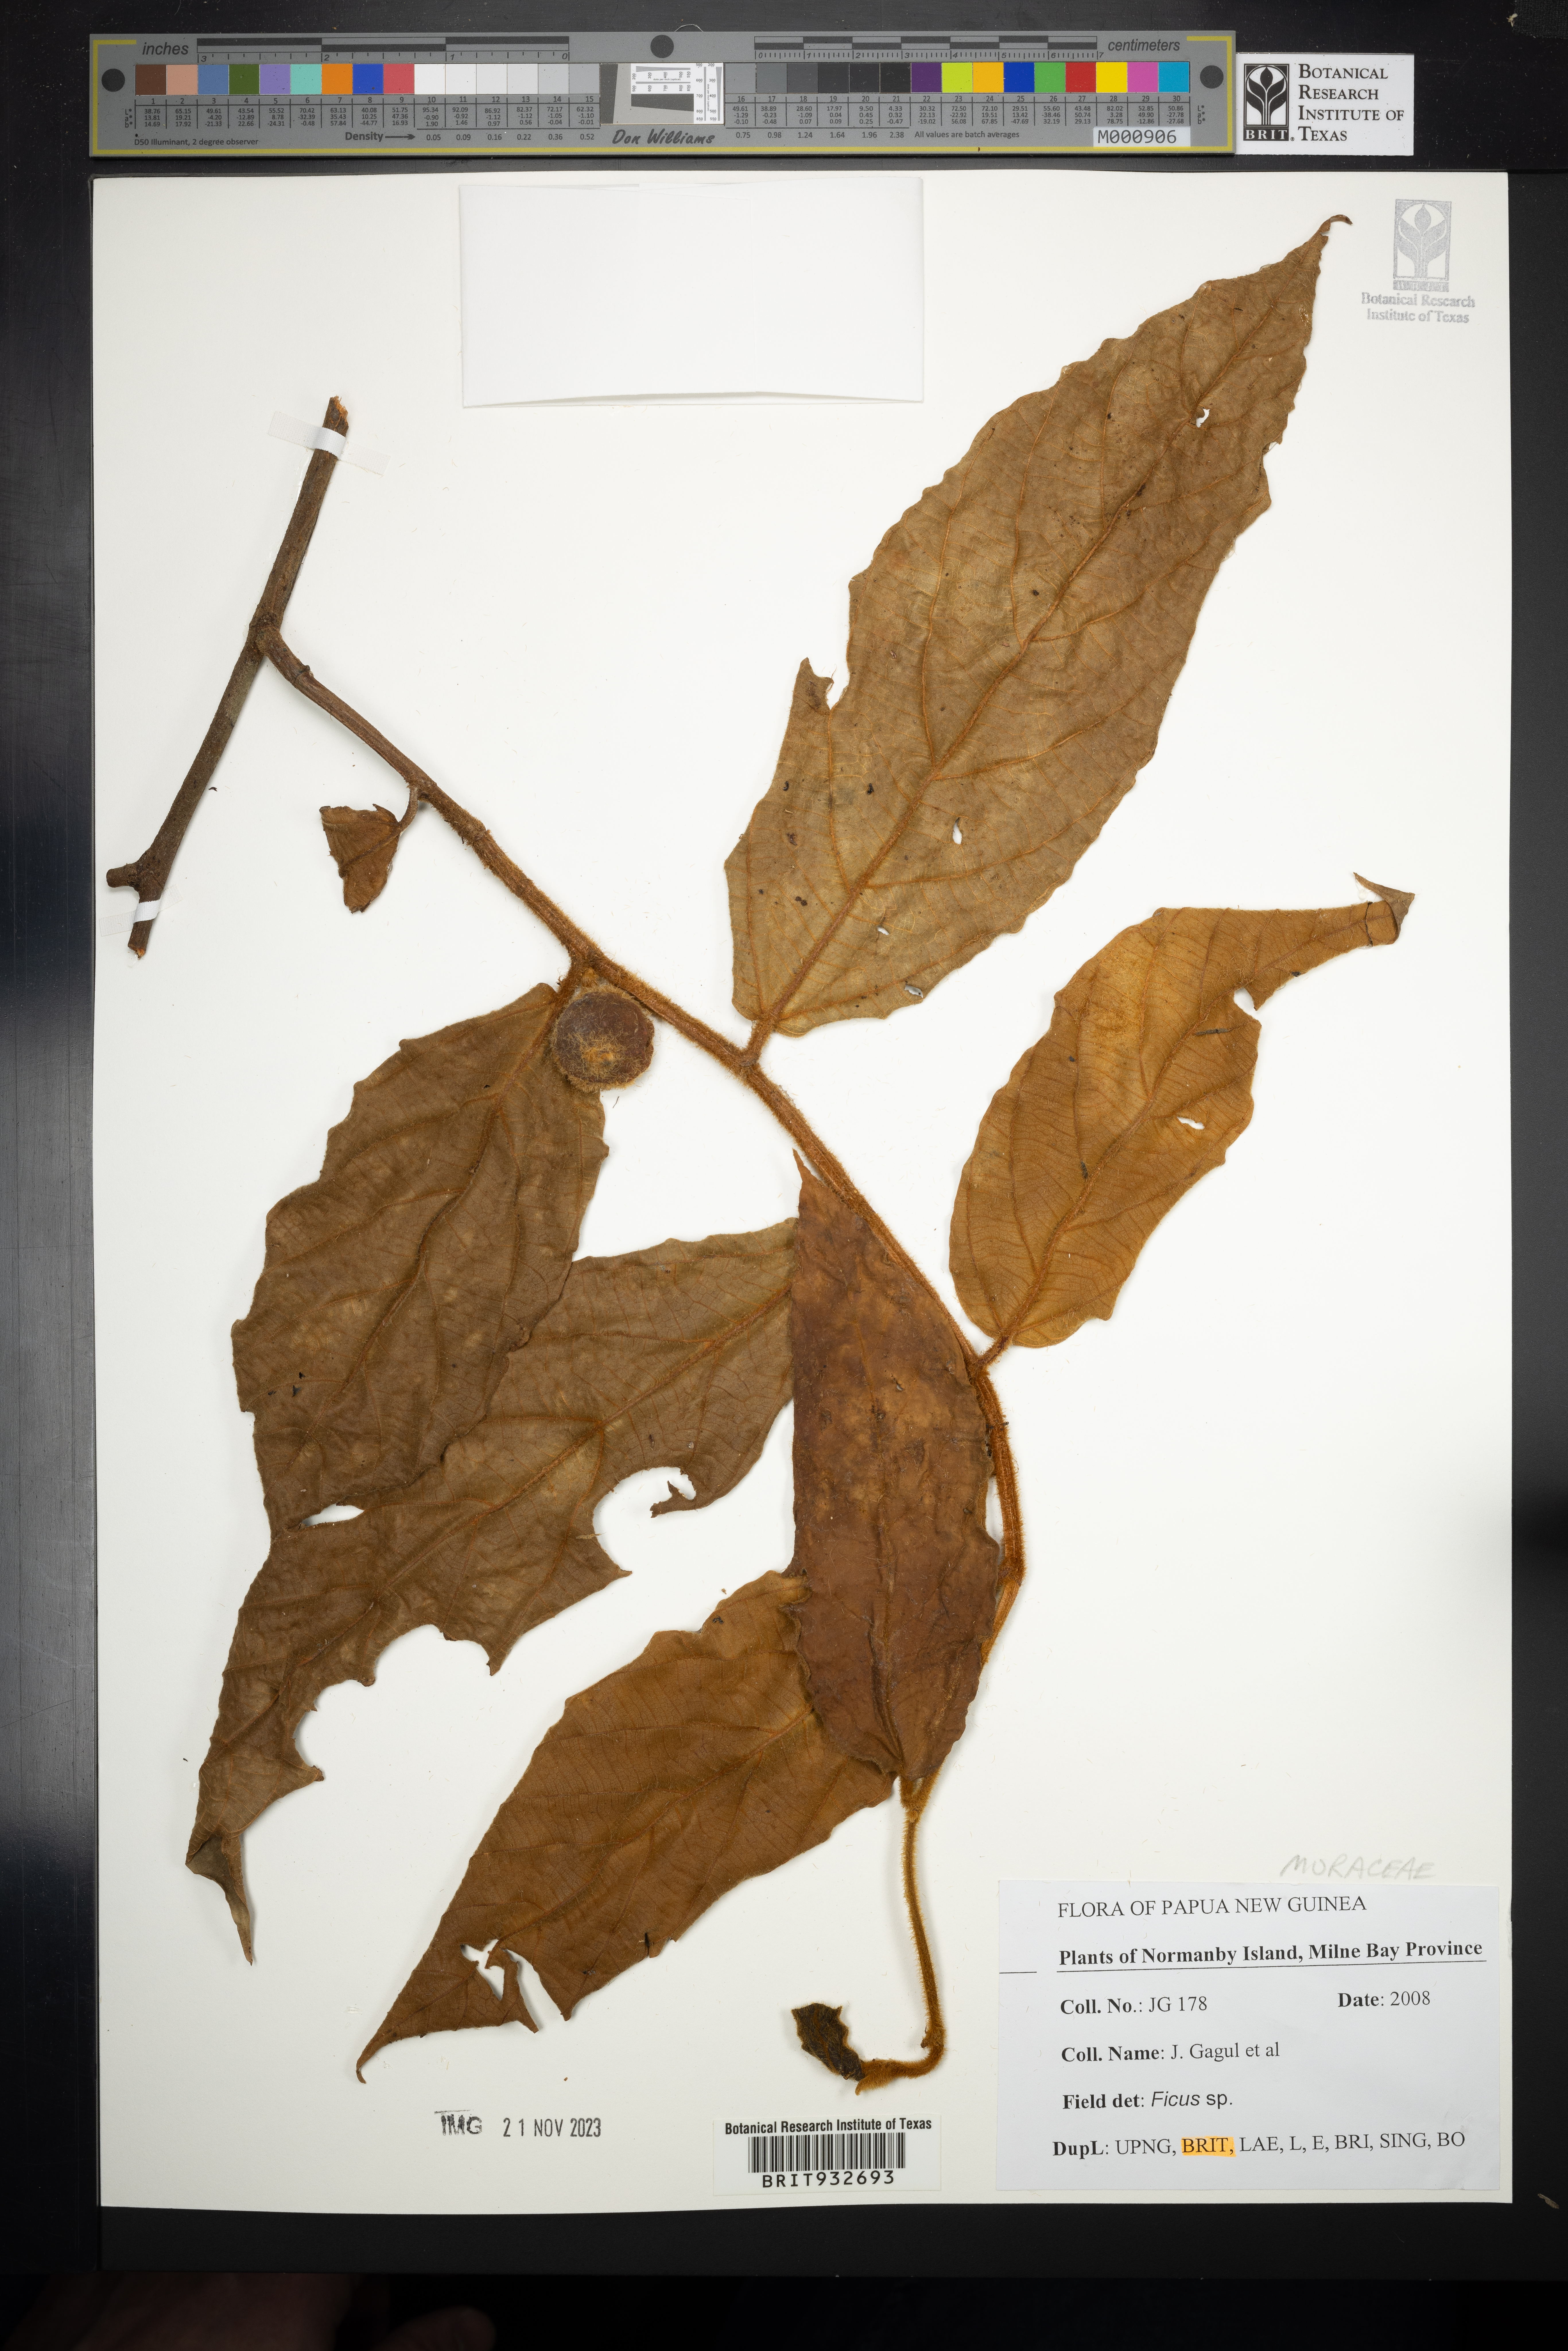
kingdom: Plantae
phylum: Tracheophyta
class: Magnoliopsida
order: Rosales
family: Moraceae
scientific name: Moraceae
